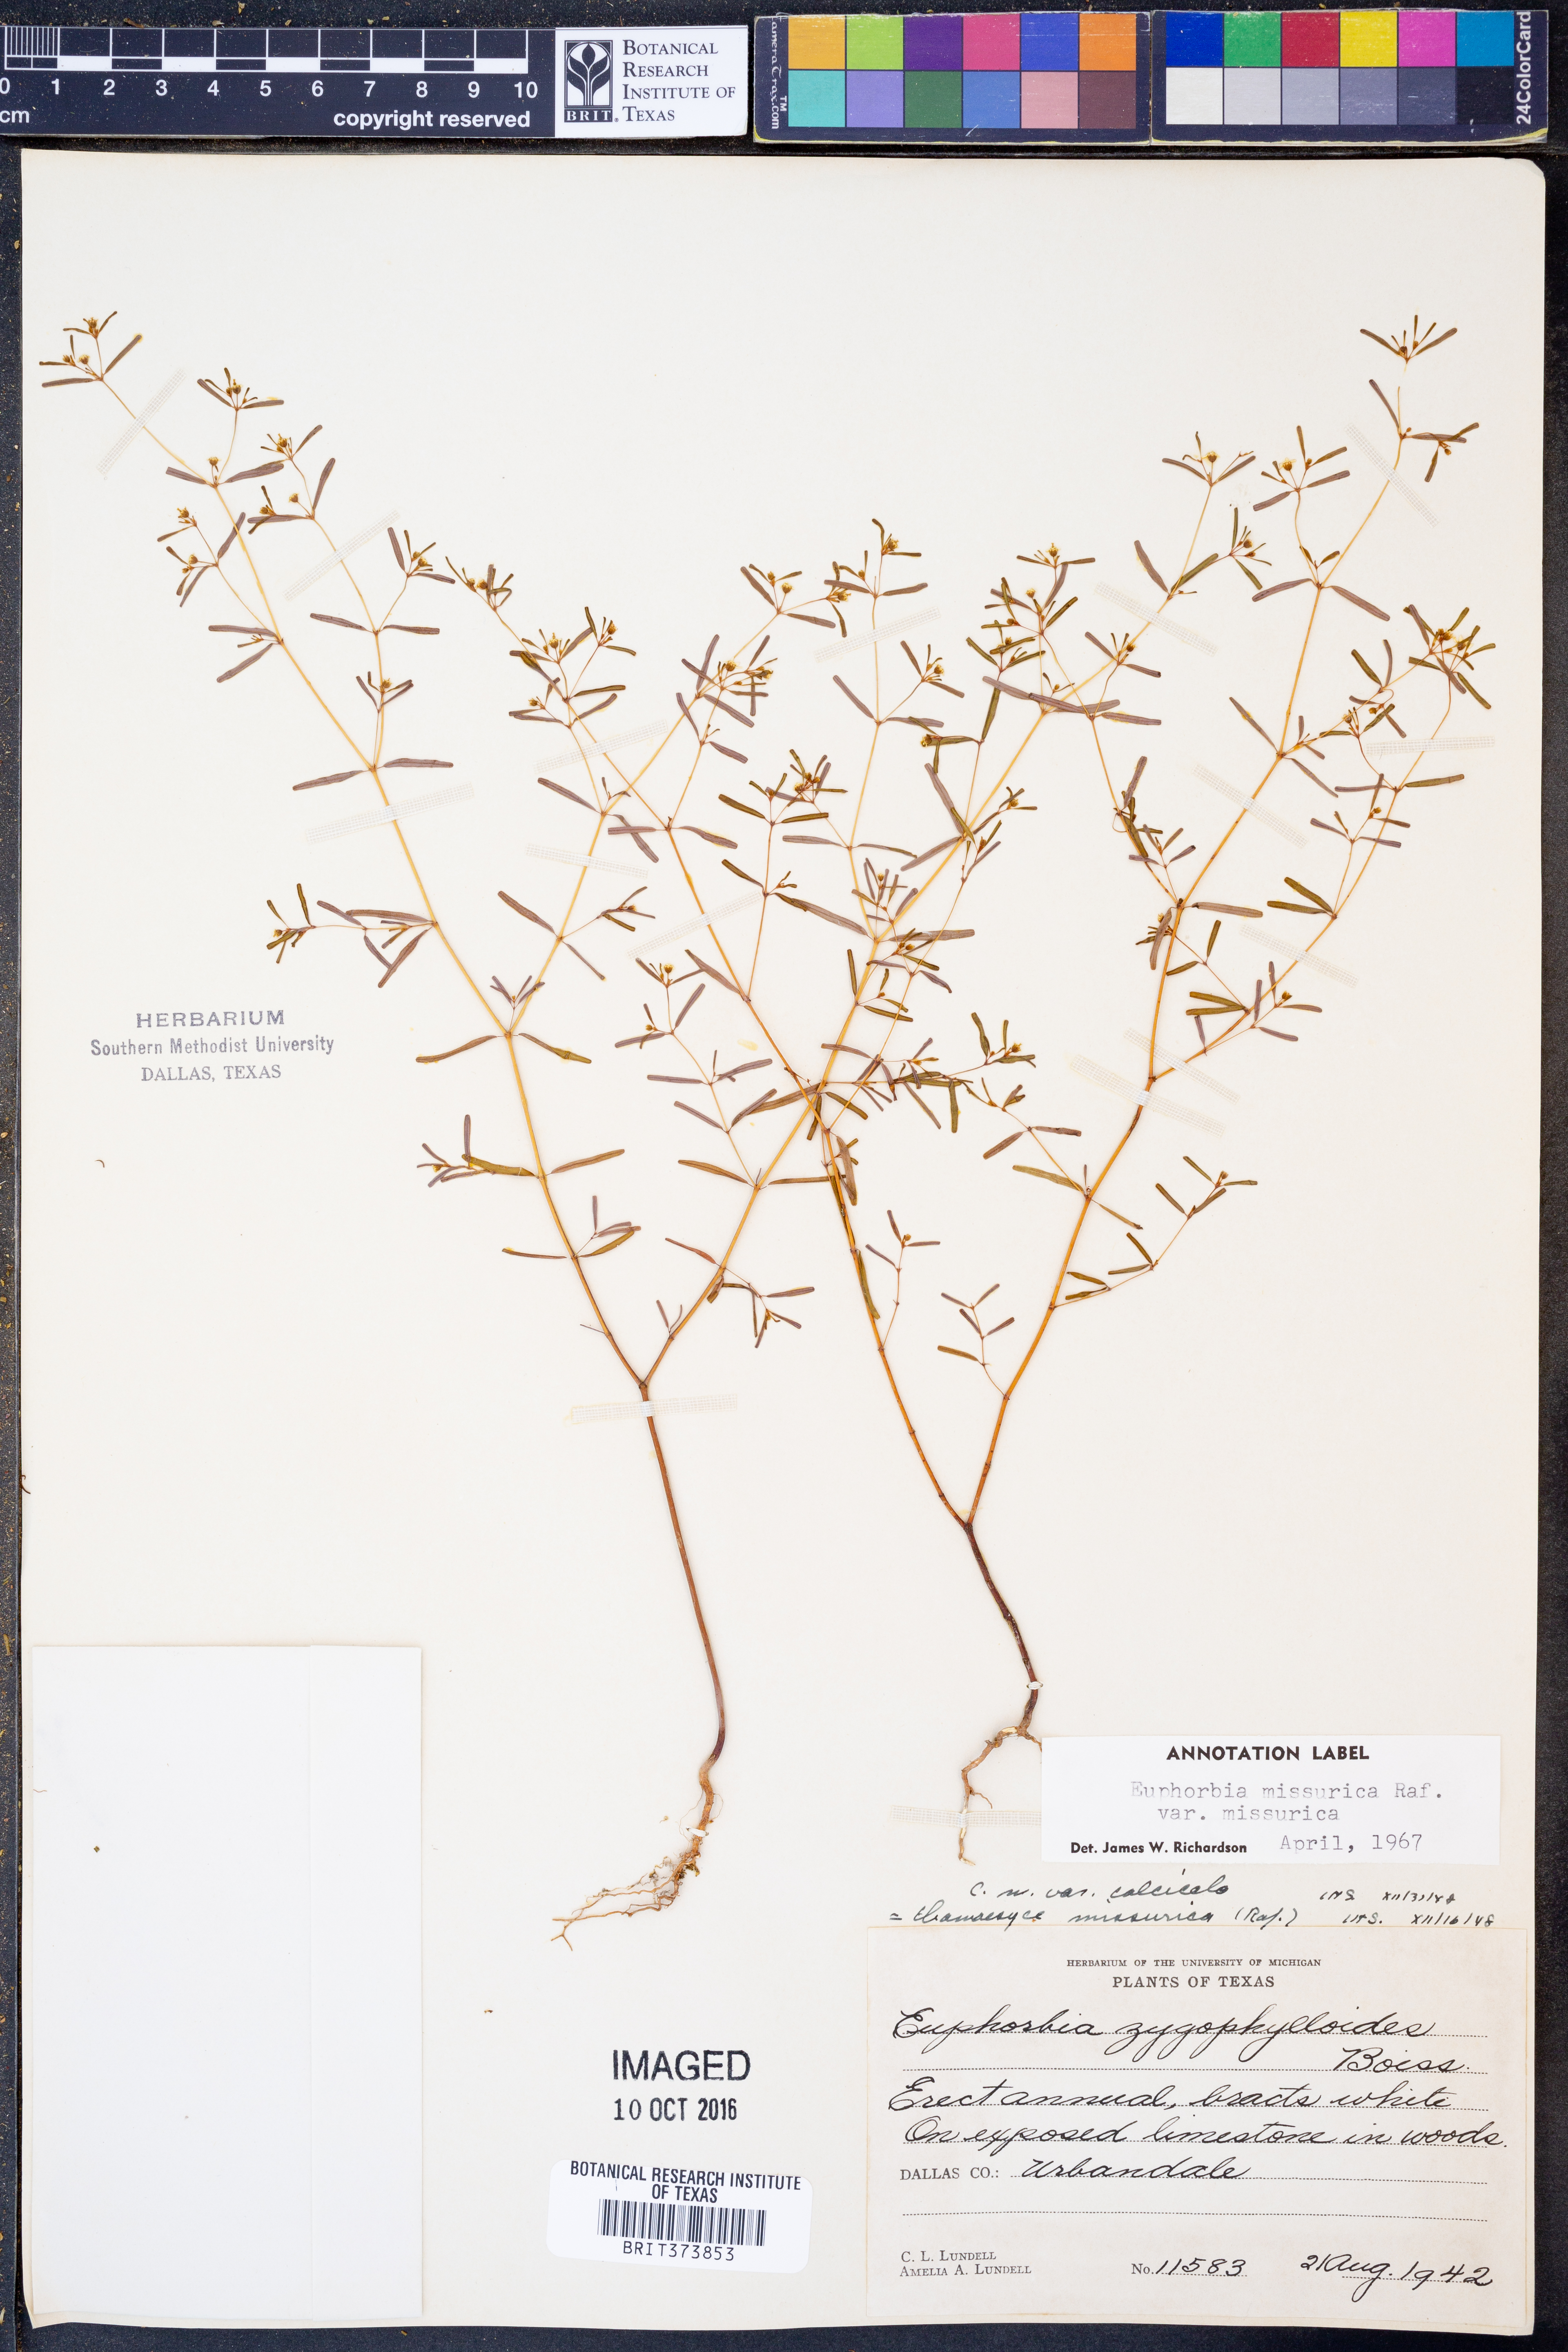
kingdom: Plantae
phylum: Tracheophyta
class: Magnoliopsida
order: Malpighiales
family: Euphorbiaceae
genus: Euphorbia
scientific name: Euphorbia missurica
